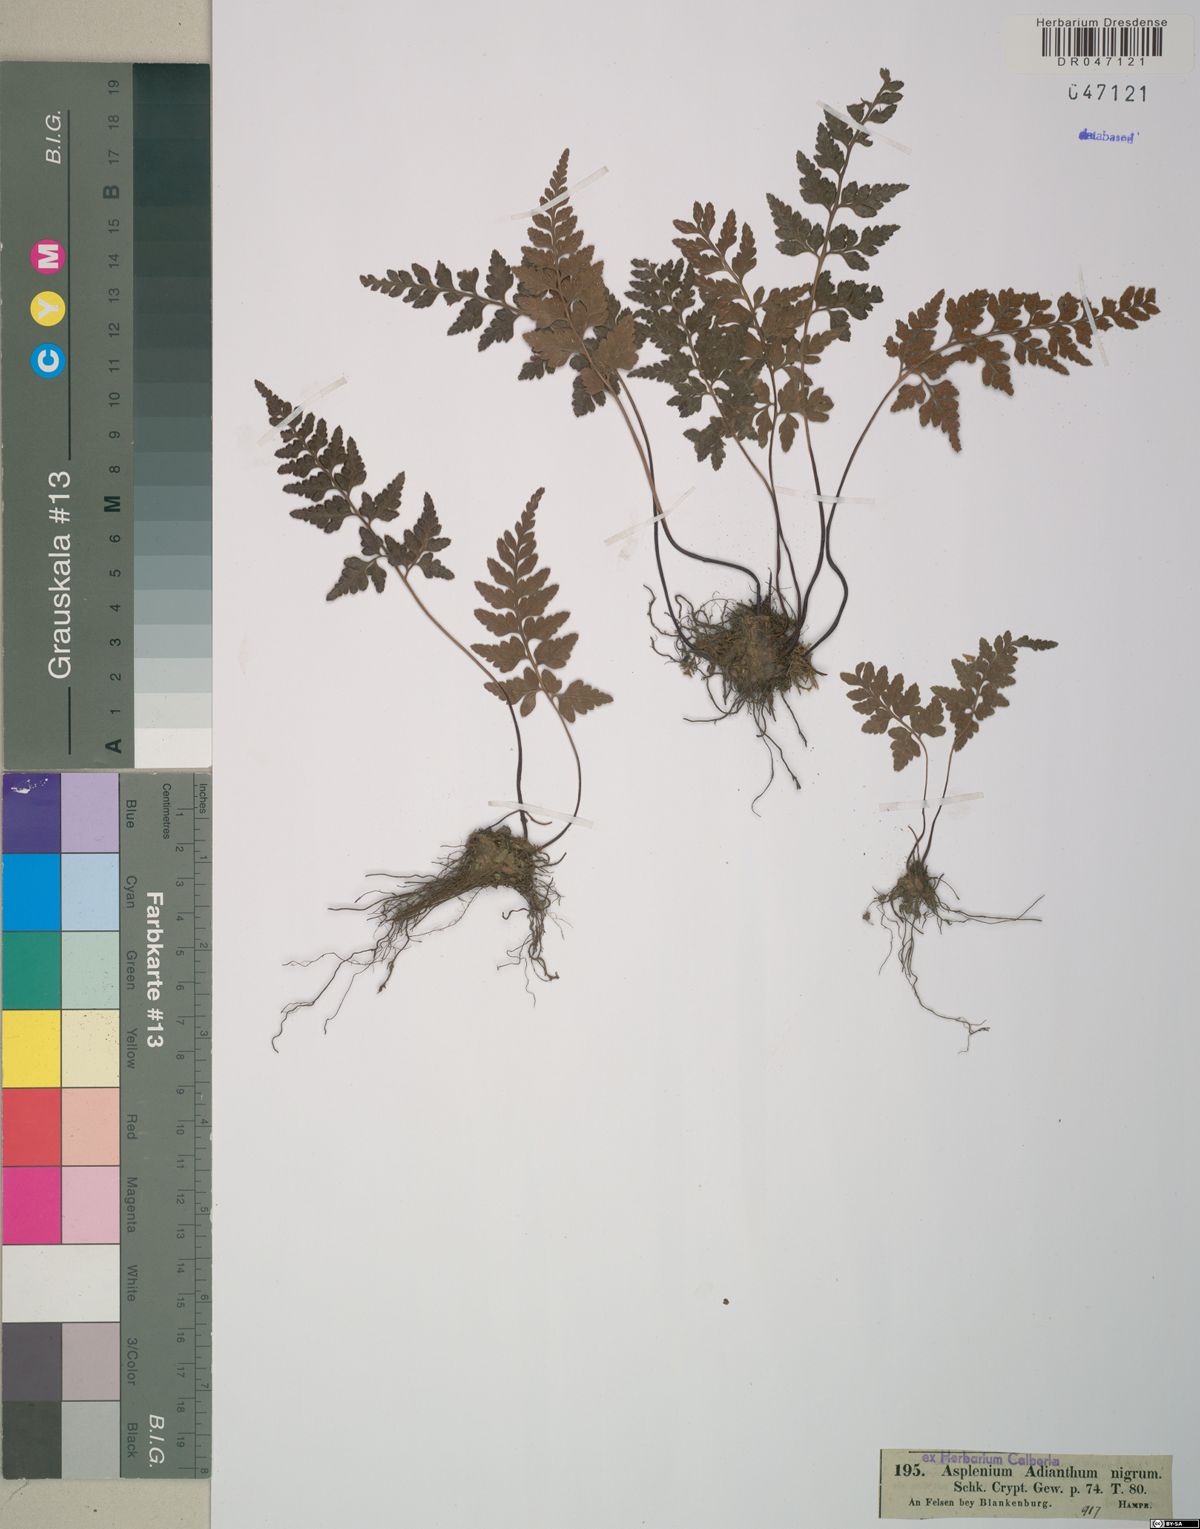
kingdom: Plantae
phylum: Tracheophyta
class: Polypodiopsida
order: Polypodiales
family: Aspleniaceae
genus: Asplenium
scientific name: Asplenium adiantum-nigrum
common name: Black spleenwort
